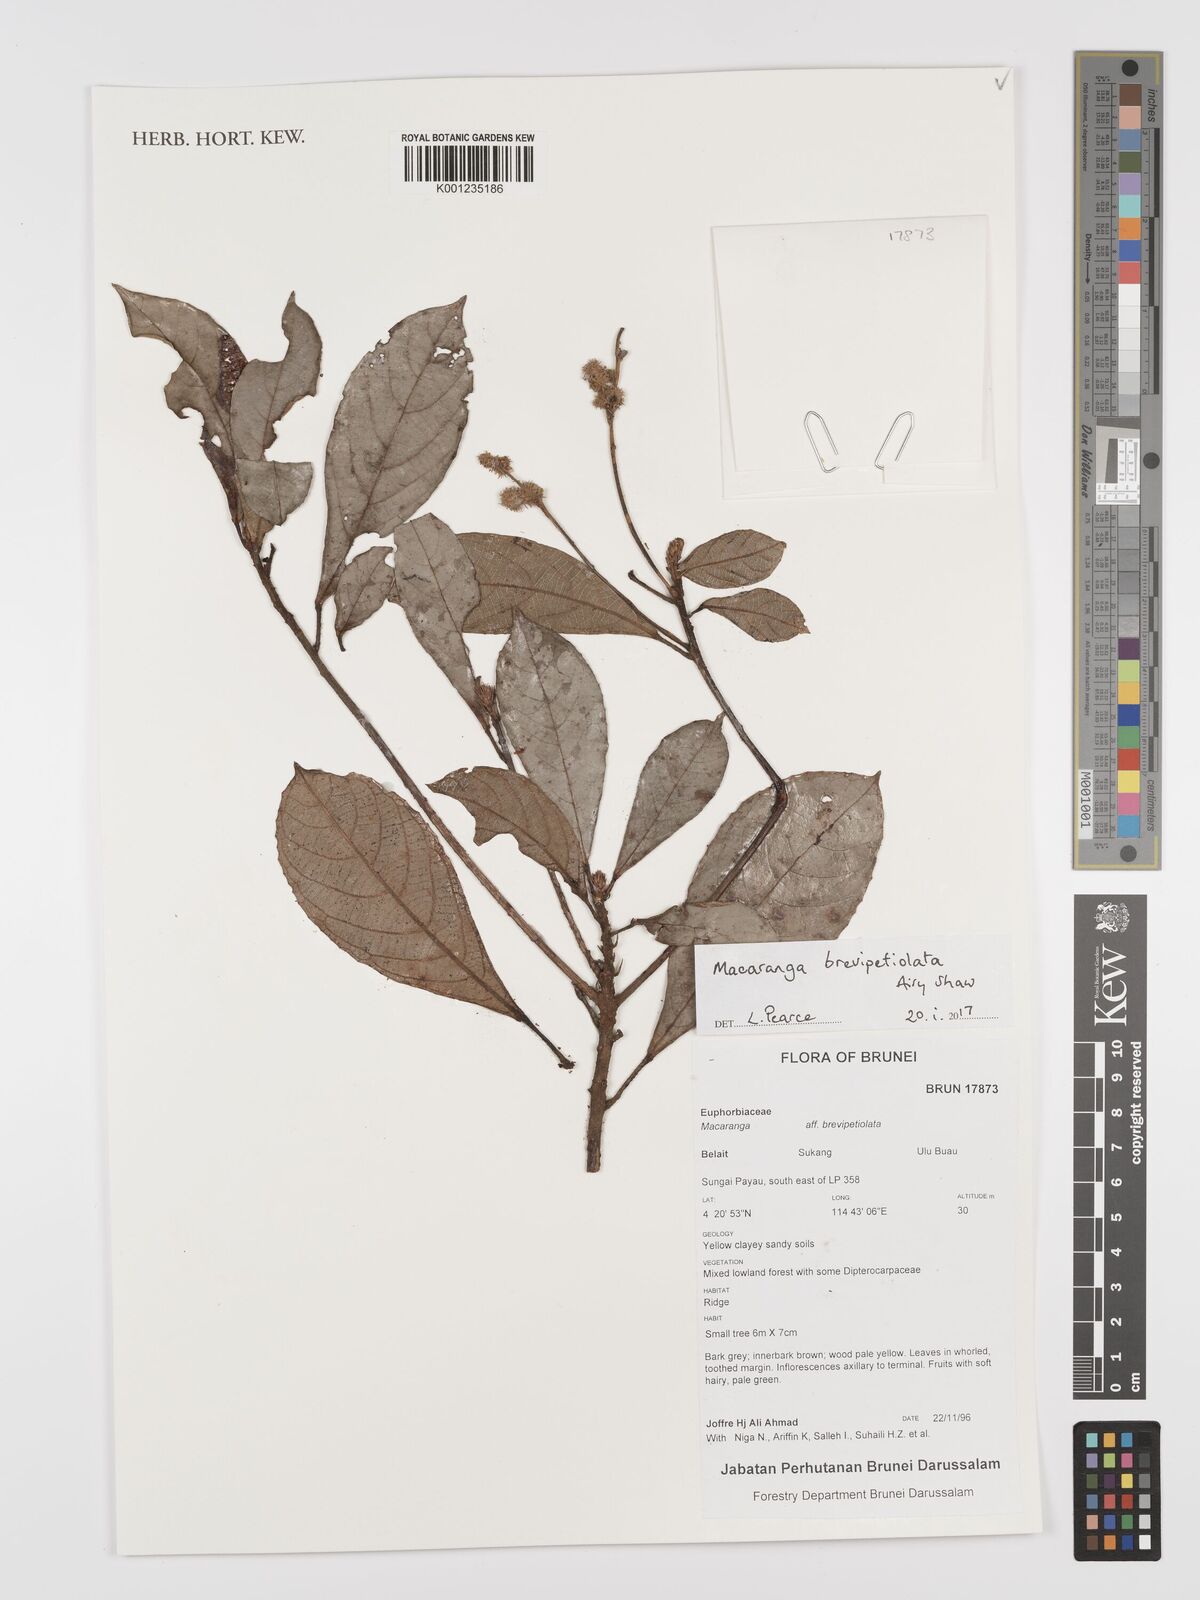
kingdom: Plantae
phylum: Tracheophyta
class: Magnoliopsida
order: Malpighiales
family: Euphorbiaceae
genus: Macaranga
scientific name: Macaranga brevipetiolata
